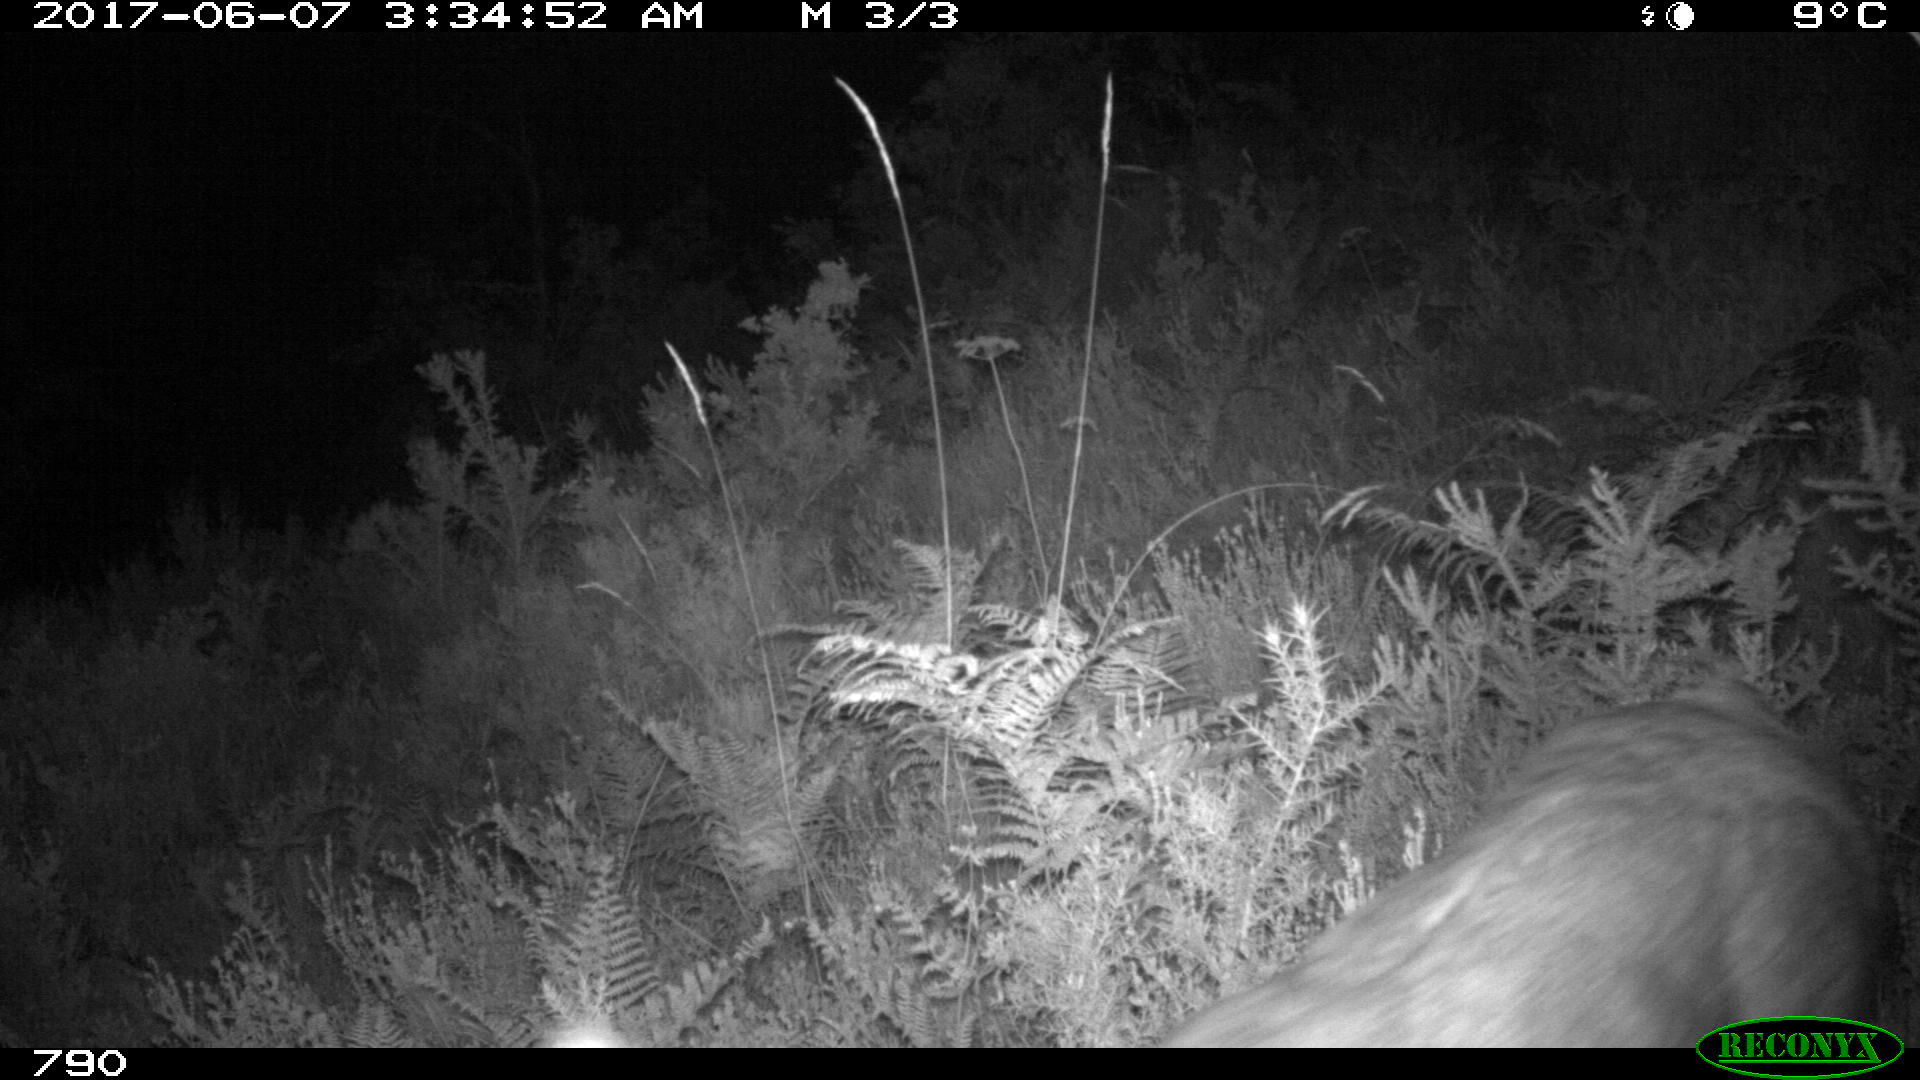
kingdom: Animalia
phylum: Chordata
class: Mammalia
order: Artiodactyla
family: Cervidae
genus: Capreolus
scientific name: Capreolus capreolus
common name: Western roe deer
